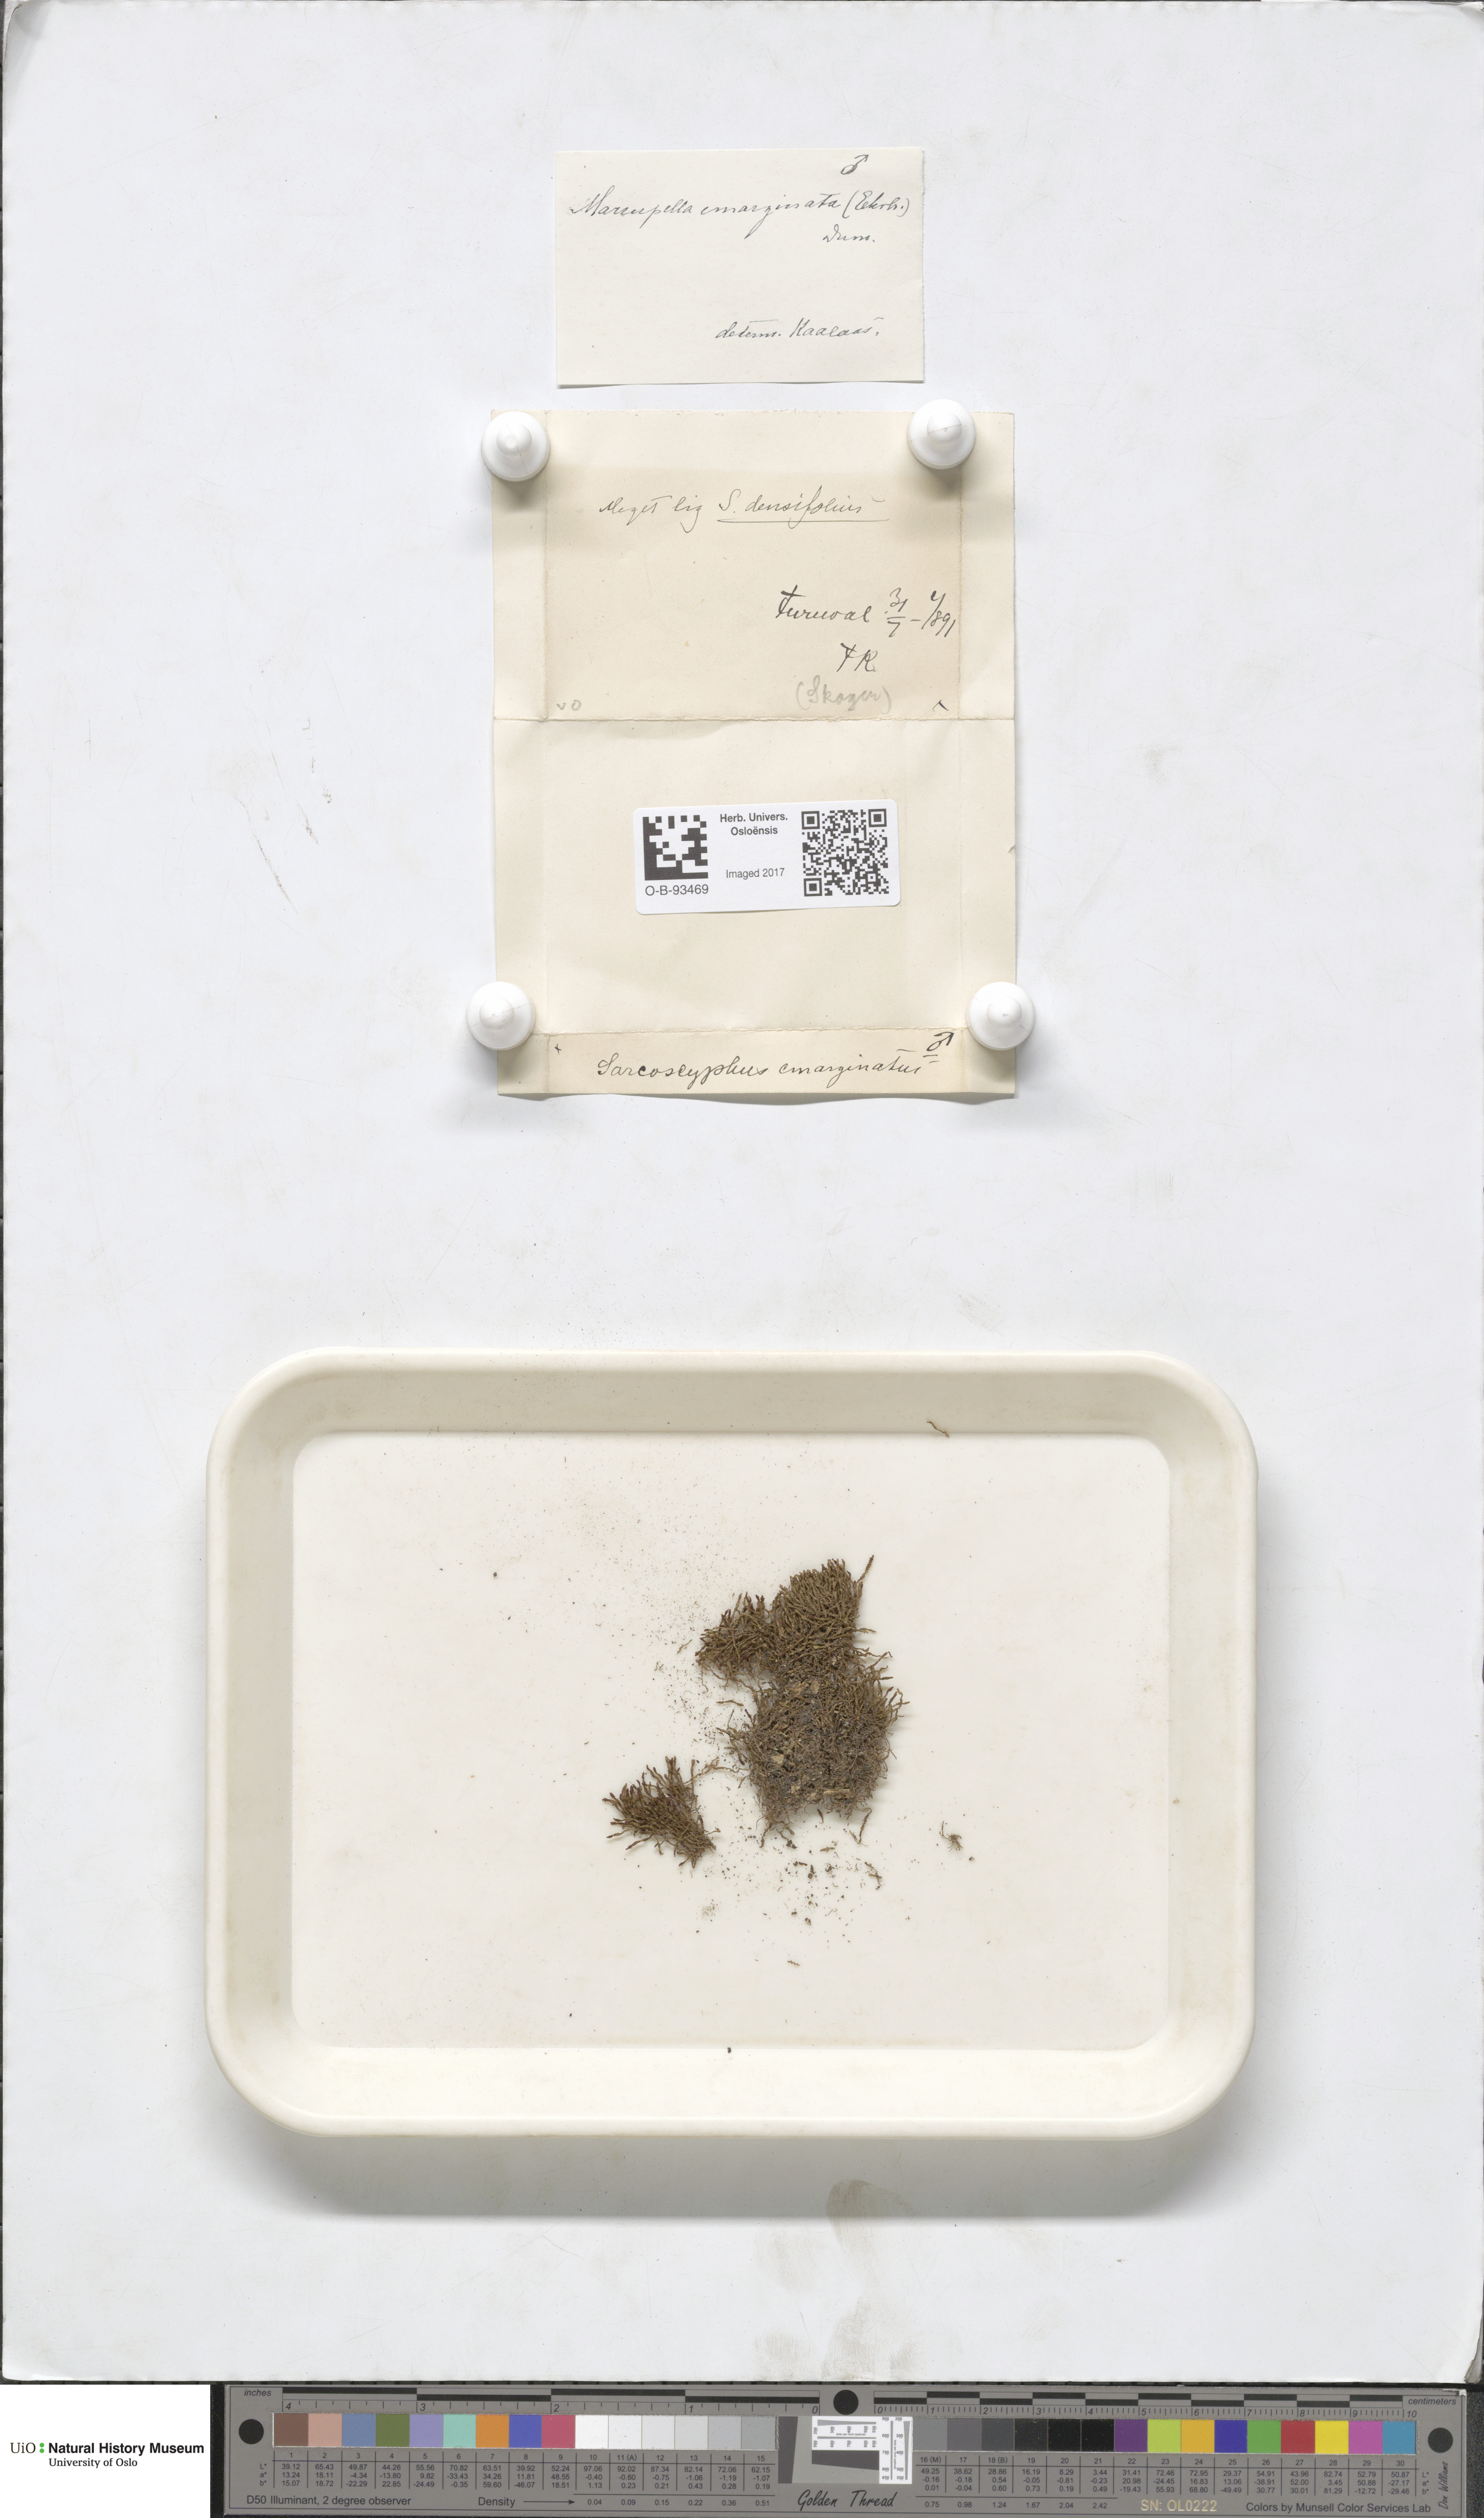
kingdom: Plantae
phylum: Marchantiophyta
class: Jungermanniopsida
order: Jungermanniales
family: Gymnomitriaceae
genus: Marsupella
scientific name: Marsupella emarginata
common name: Notched rustwort
